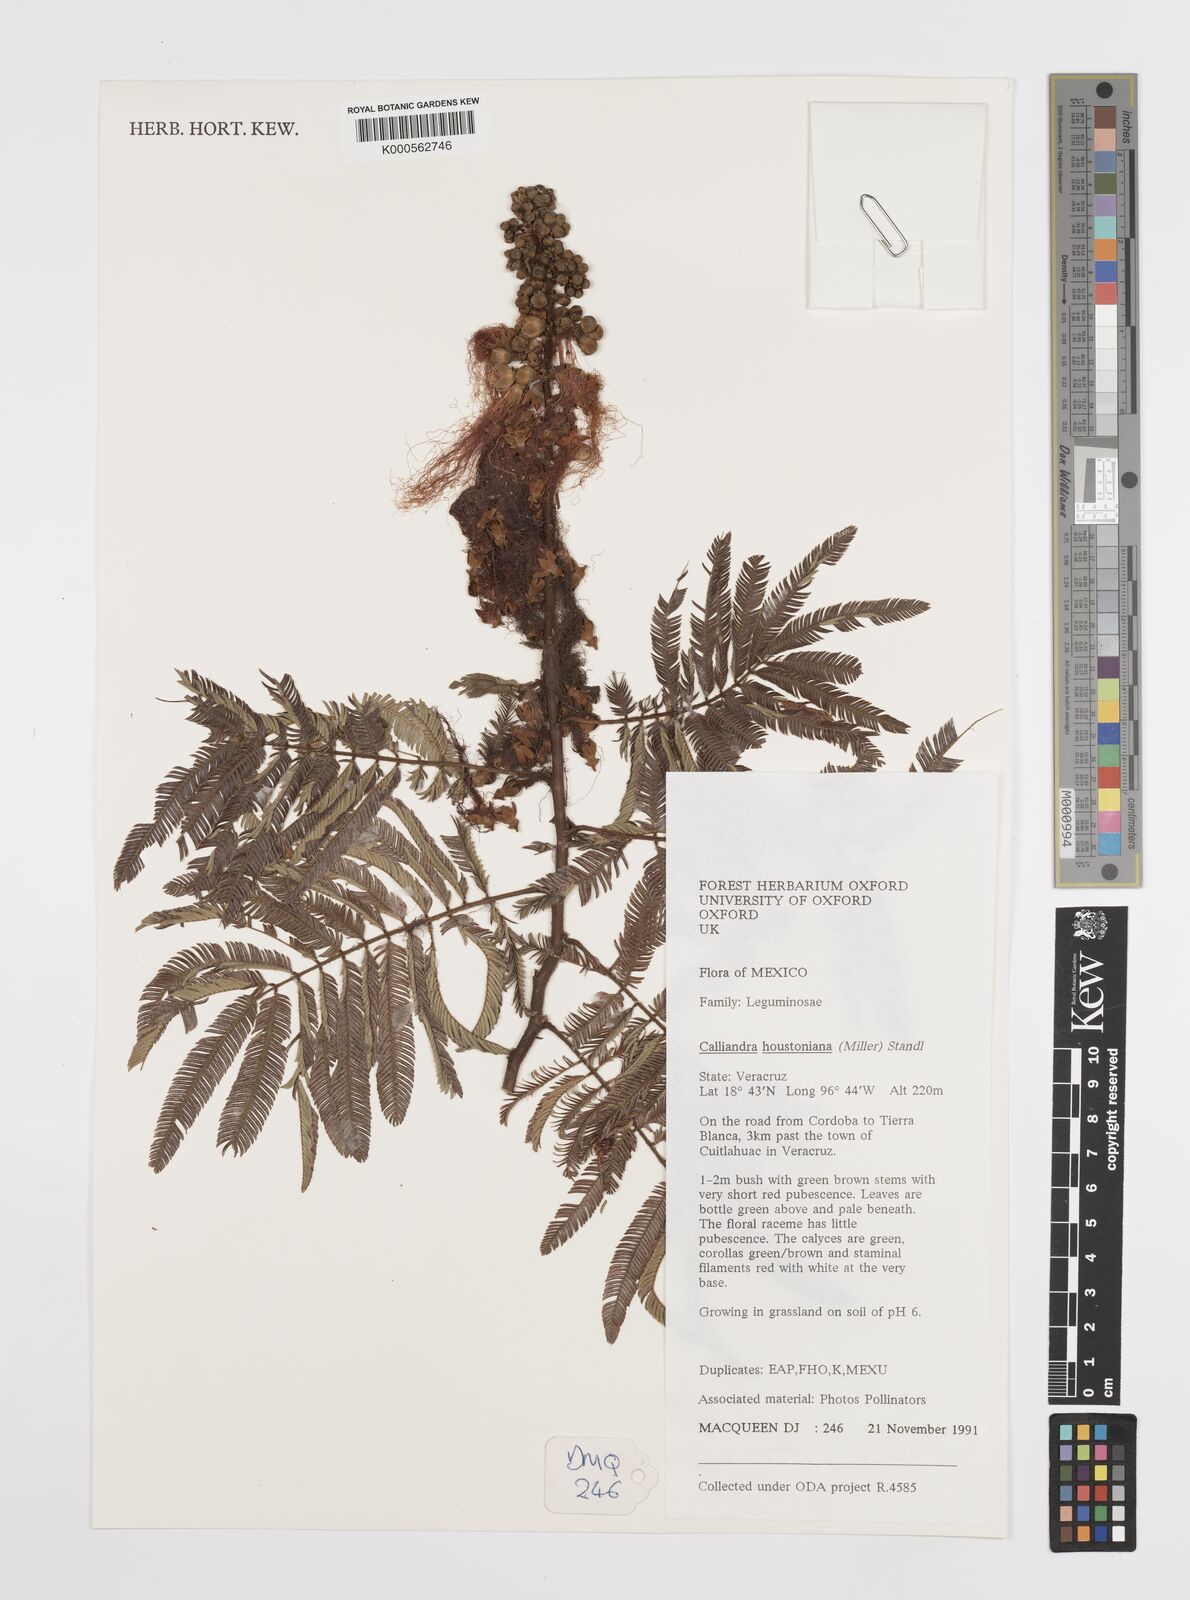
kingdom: Plantae
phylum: Tracheophyta
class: Magnoliopsida
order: Fabales
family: Fabaceae
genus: Calliandra
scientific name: Calliandra houstoniana
